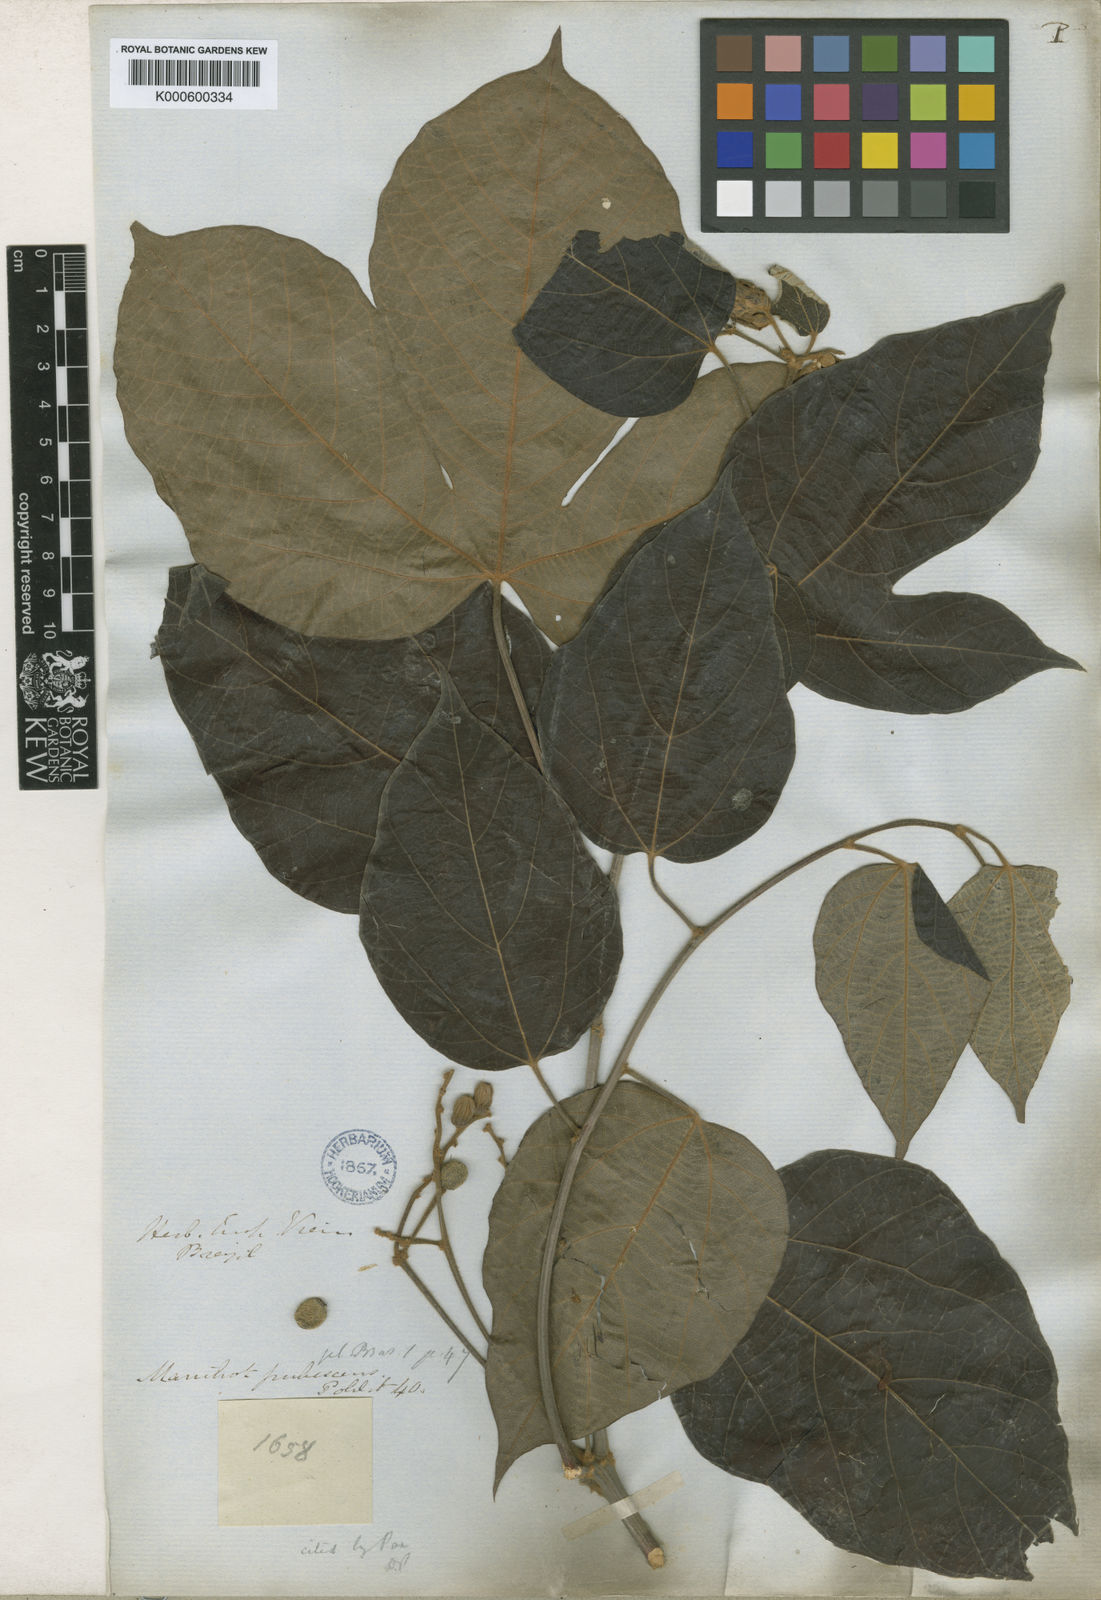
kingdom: Plantae
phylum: Tracheophyta
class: Magnoliopsida
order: Malpighiales
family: Euphorbiaceae
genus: Manihot
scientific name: Manihot anomala
